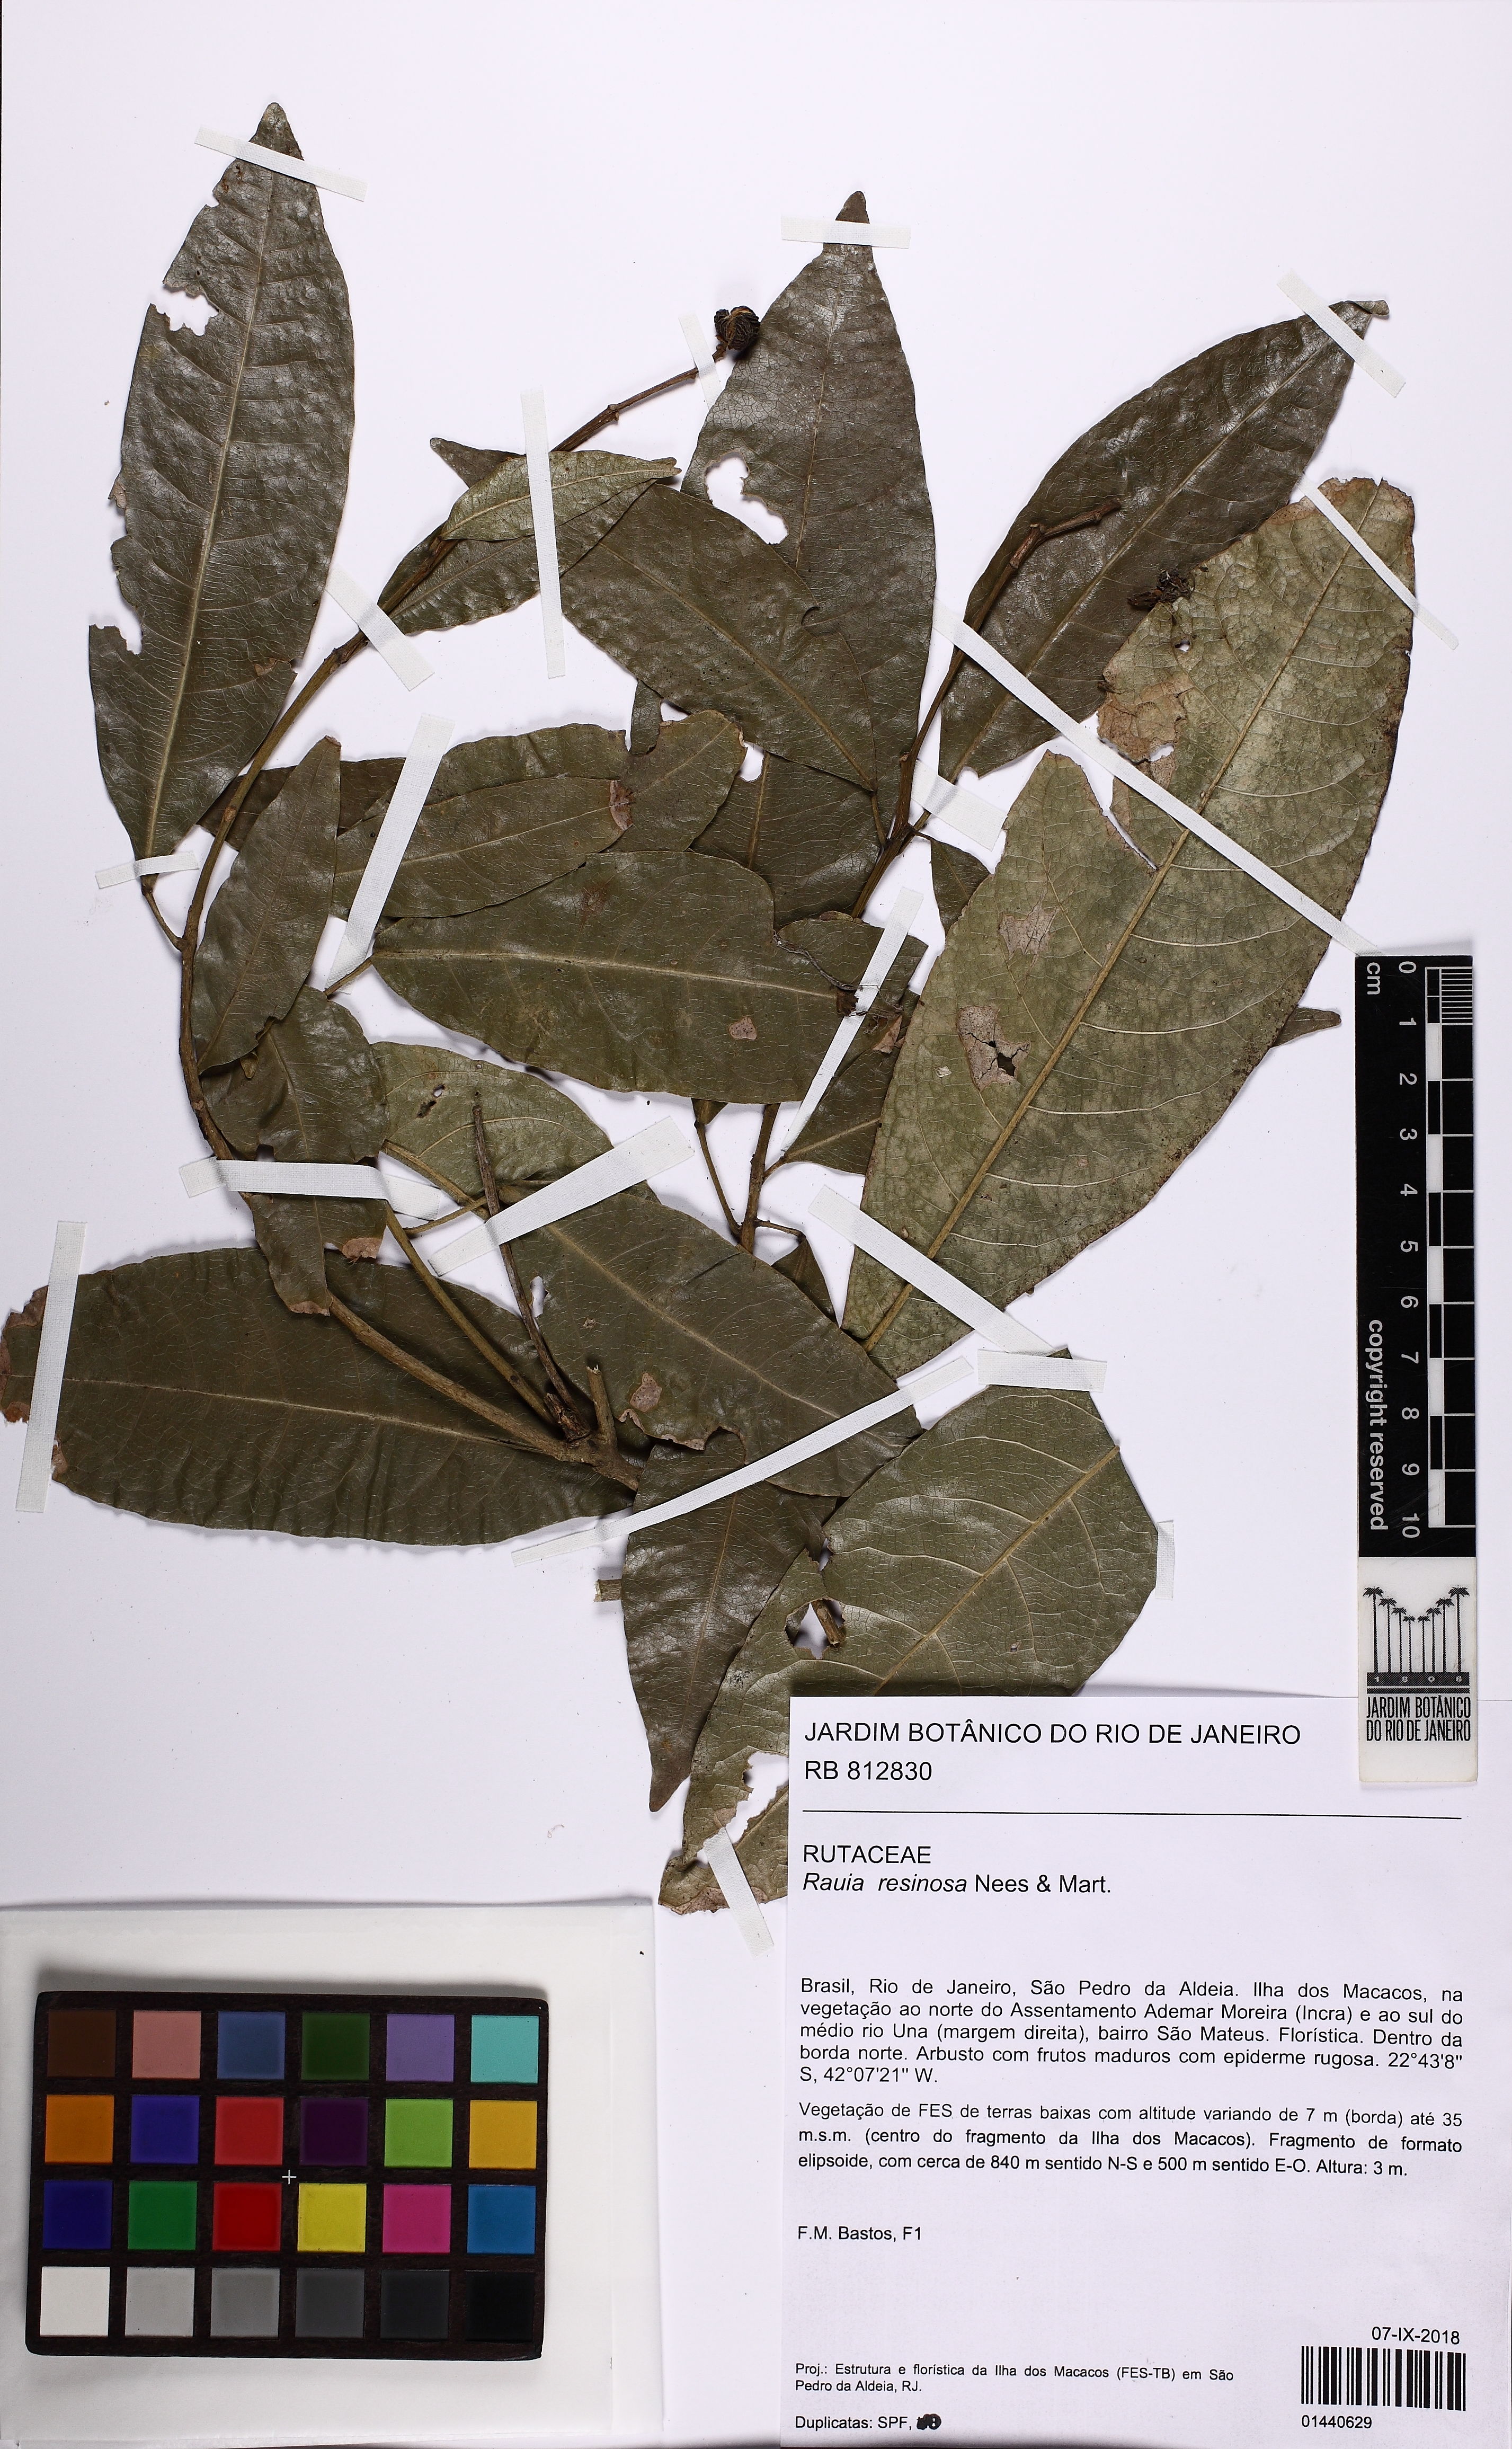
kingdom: Plantae
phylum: Tracheophyta
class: Magnoliopsida
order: Sapindales
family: Rutaceae
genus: Rauia
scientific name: Rauia resinosa
